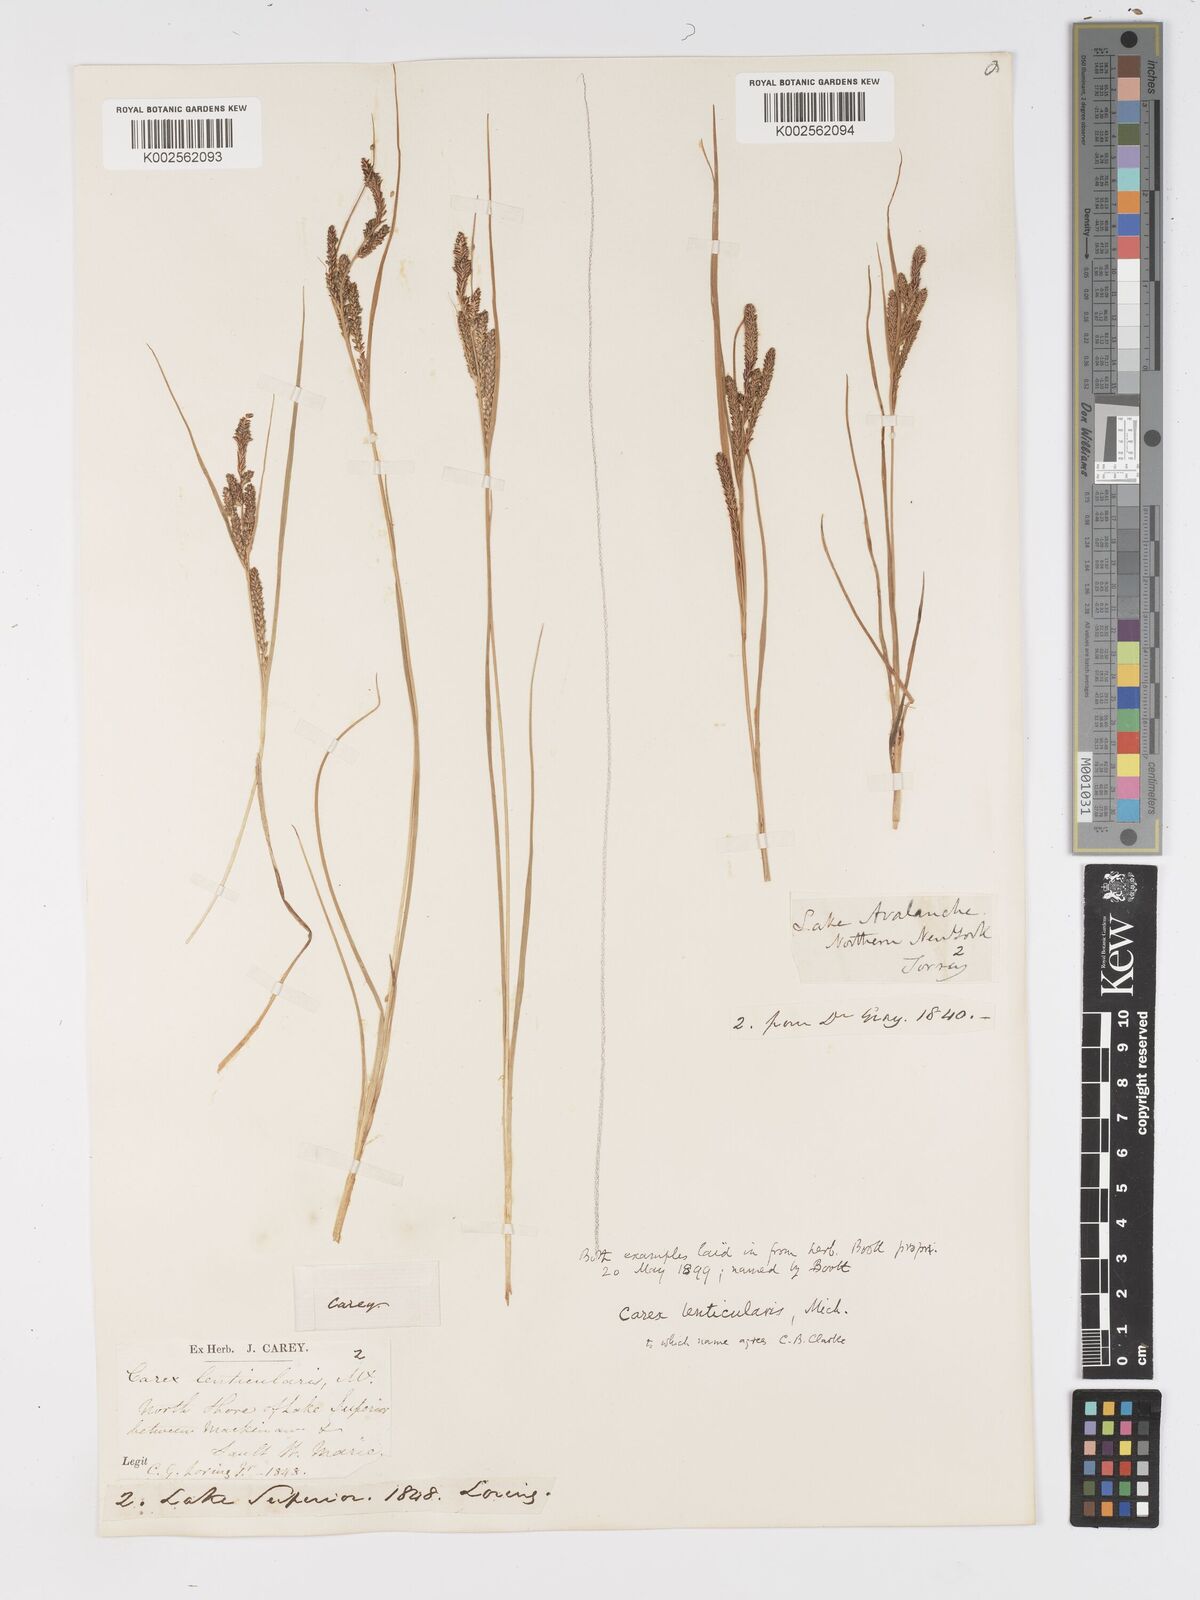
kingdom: Plantae
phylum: Tracheophyta
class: Liliopsida
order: Poales
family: Cyperaceae
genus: Carex
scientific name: Carex lenticularis
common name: Lakeshore sedge
